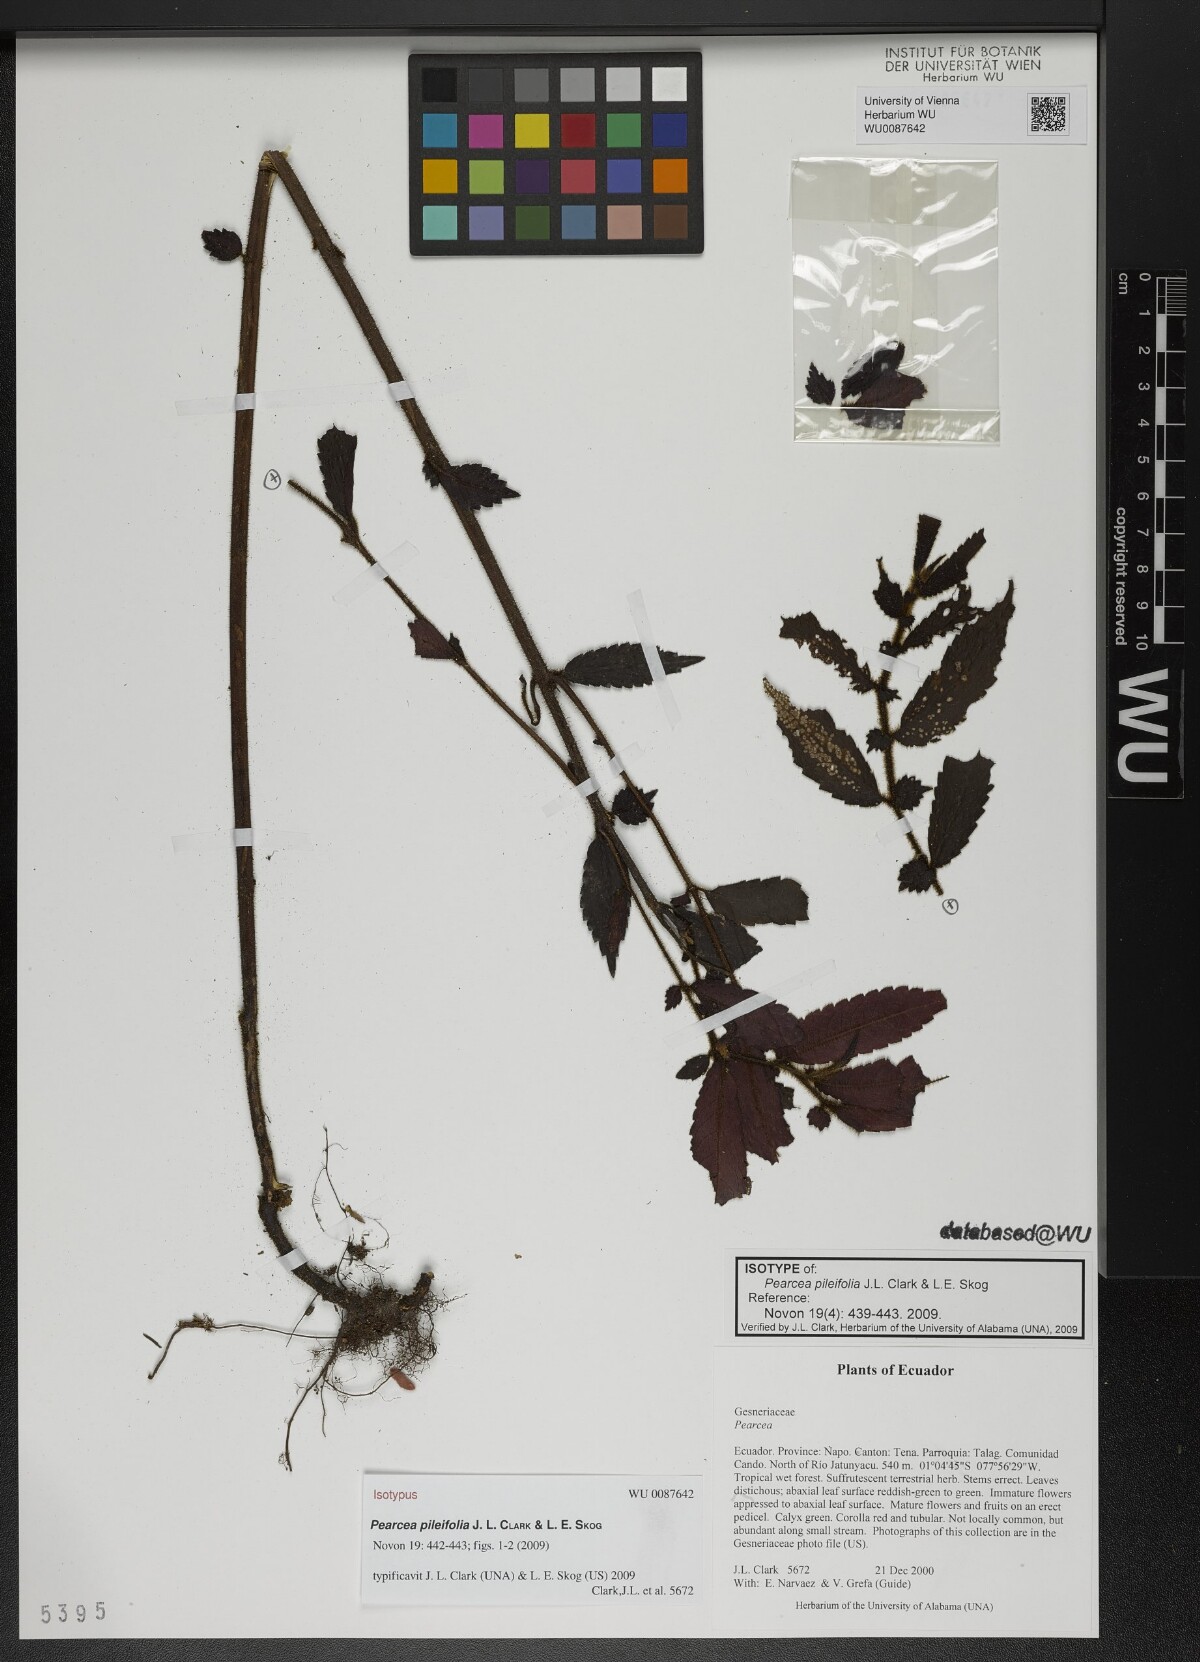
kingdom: Plantae
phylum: Tracheophyta
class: Magnoliopsida
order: Lamiales
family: Gesneriaceae
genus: Pearcea
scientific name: Pearcea pileifolia
